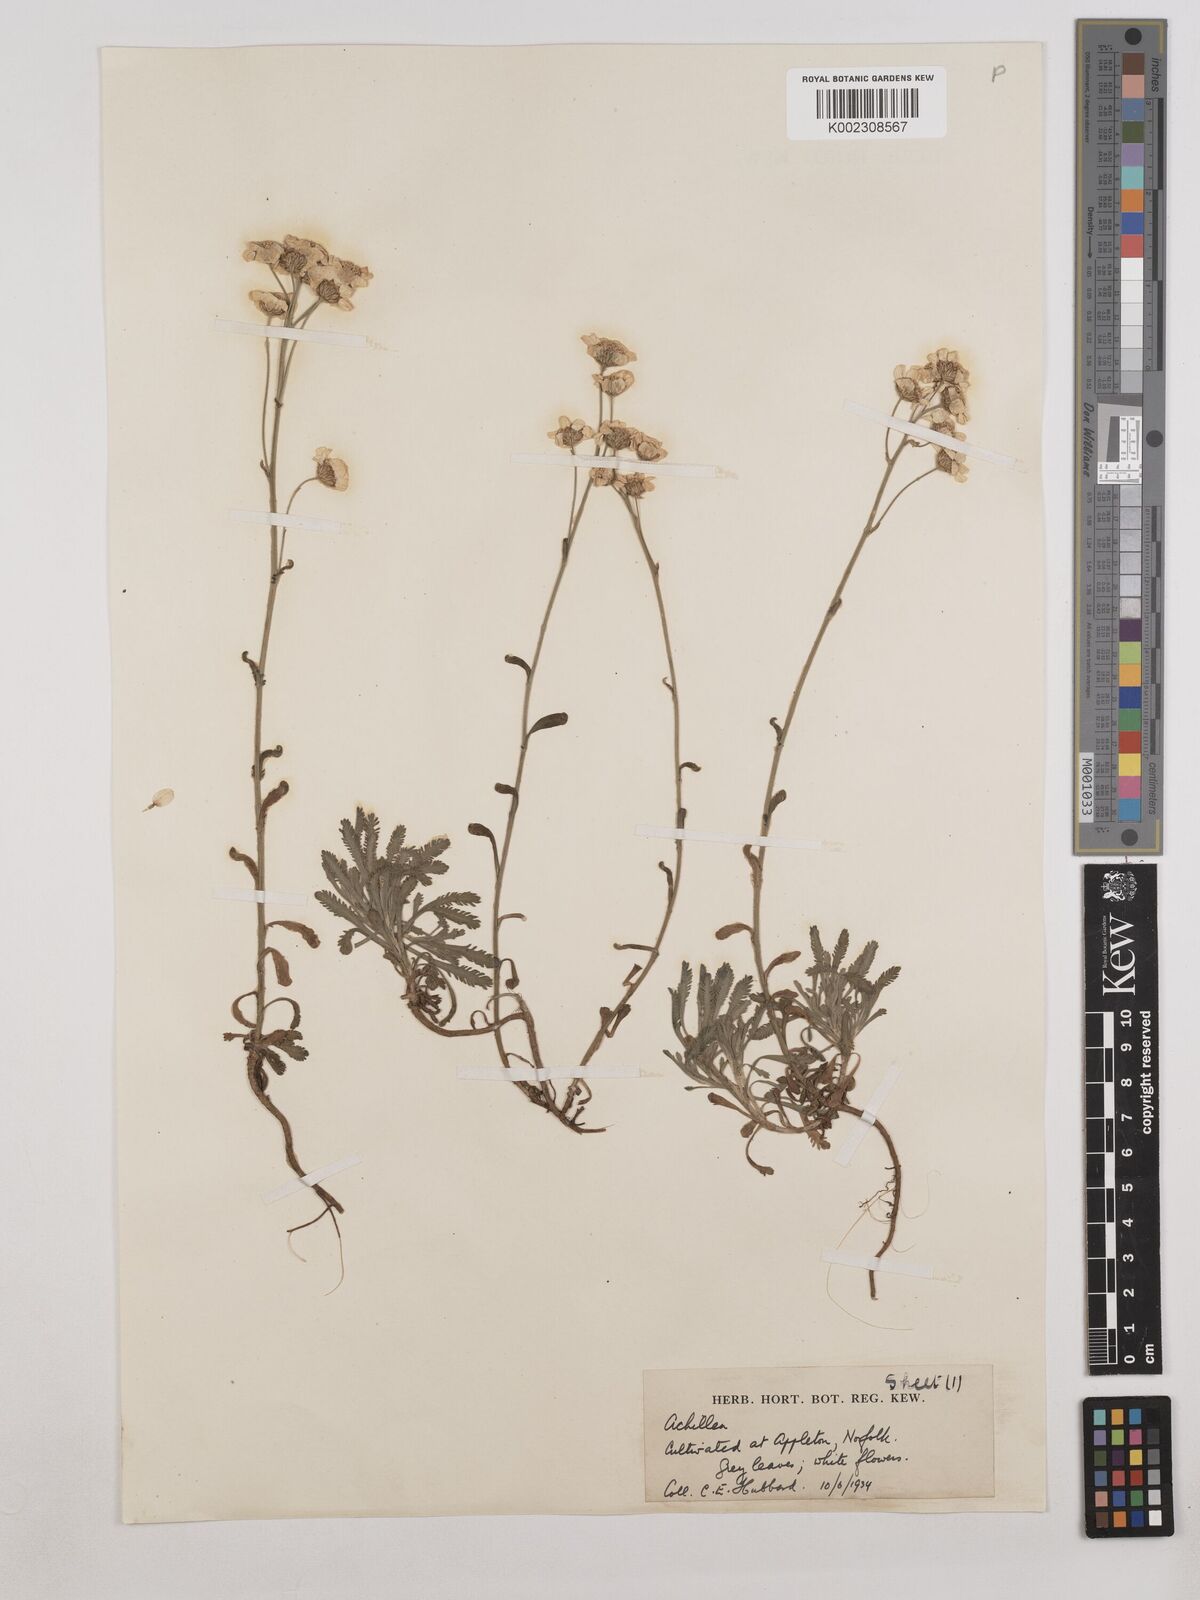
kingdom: Plantae
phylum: Tracheophyta
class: Magnoliopsida
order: Asterales
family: Asteraceae
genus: Achillea
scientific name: Achillea ageratifolia
